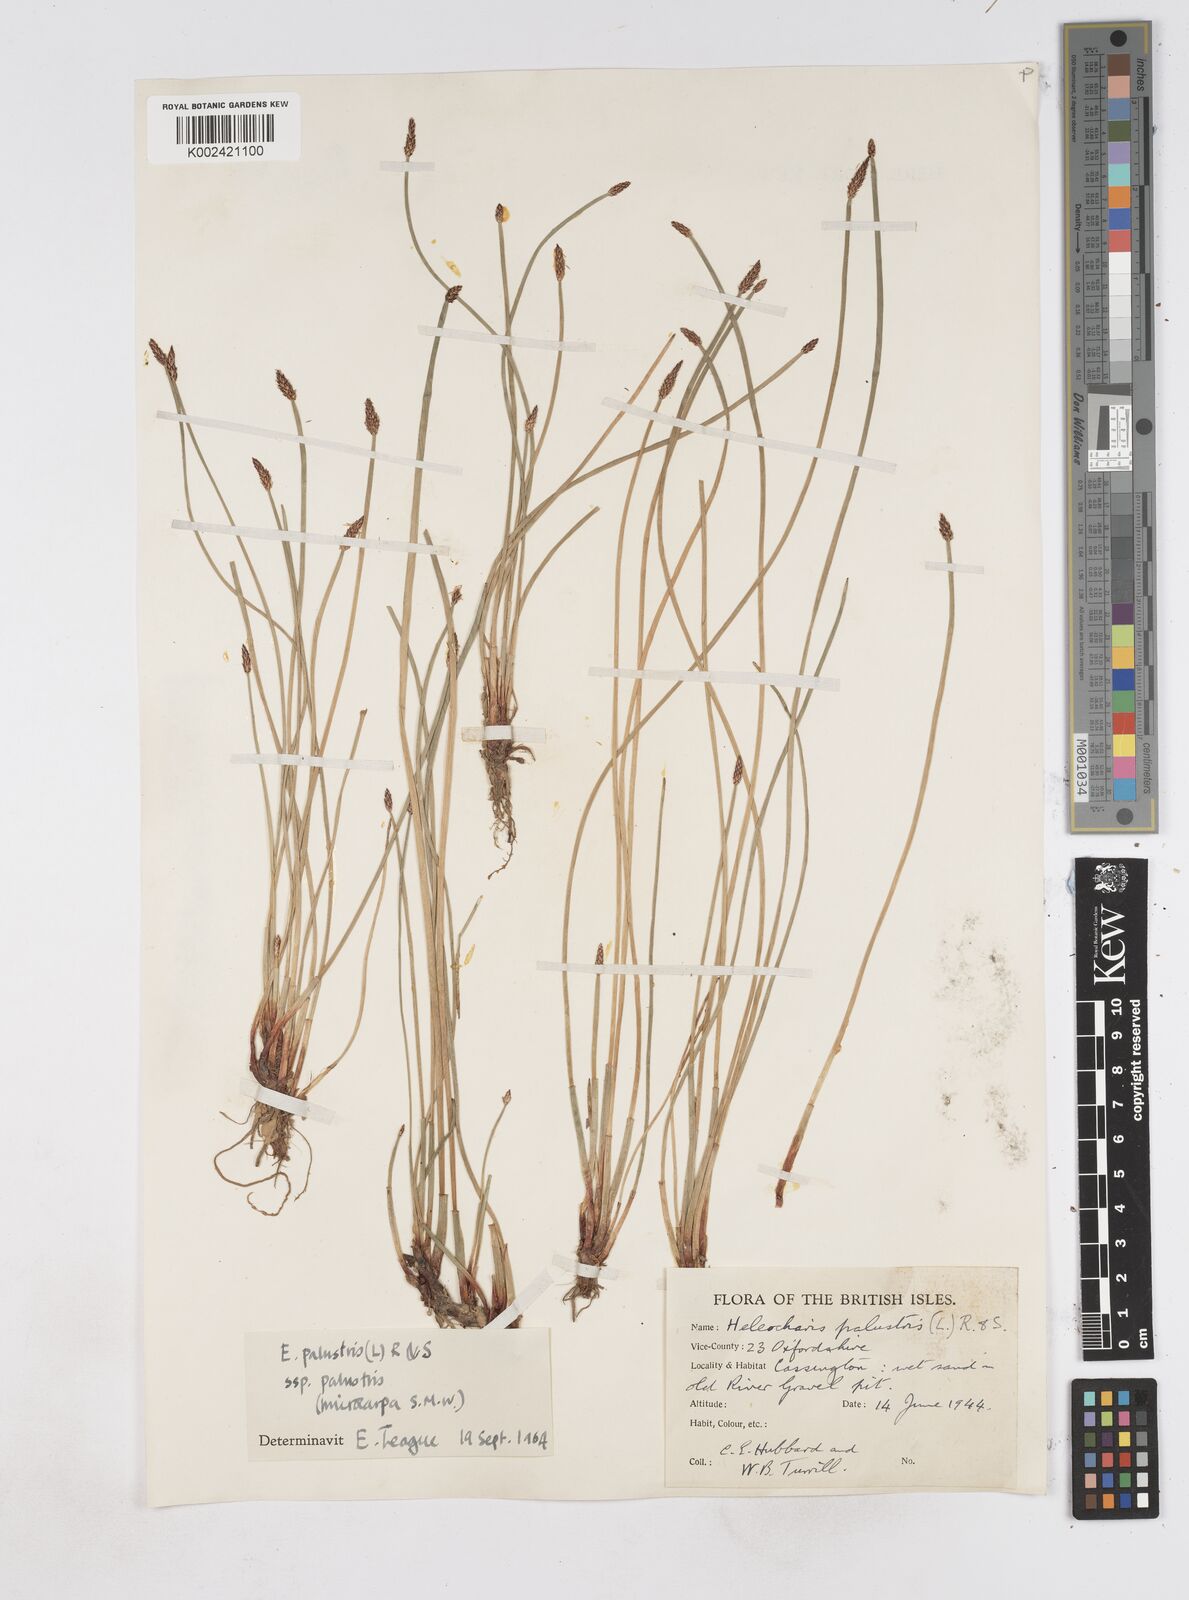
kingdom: Plantae
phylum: Tracheophyta
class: Liliopsida
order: Poales
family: Cyperaceae
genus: Eleocharis
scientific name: Eleocharis palustris
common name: Common spike-rush
